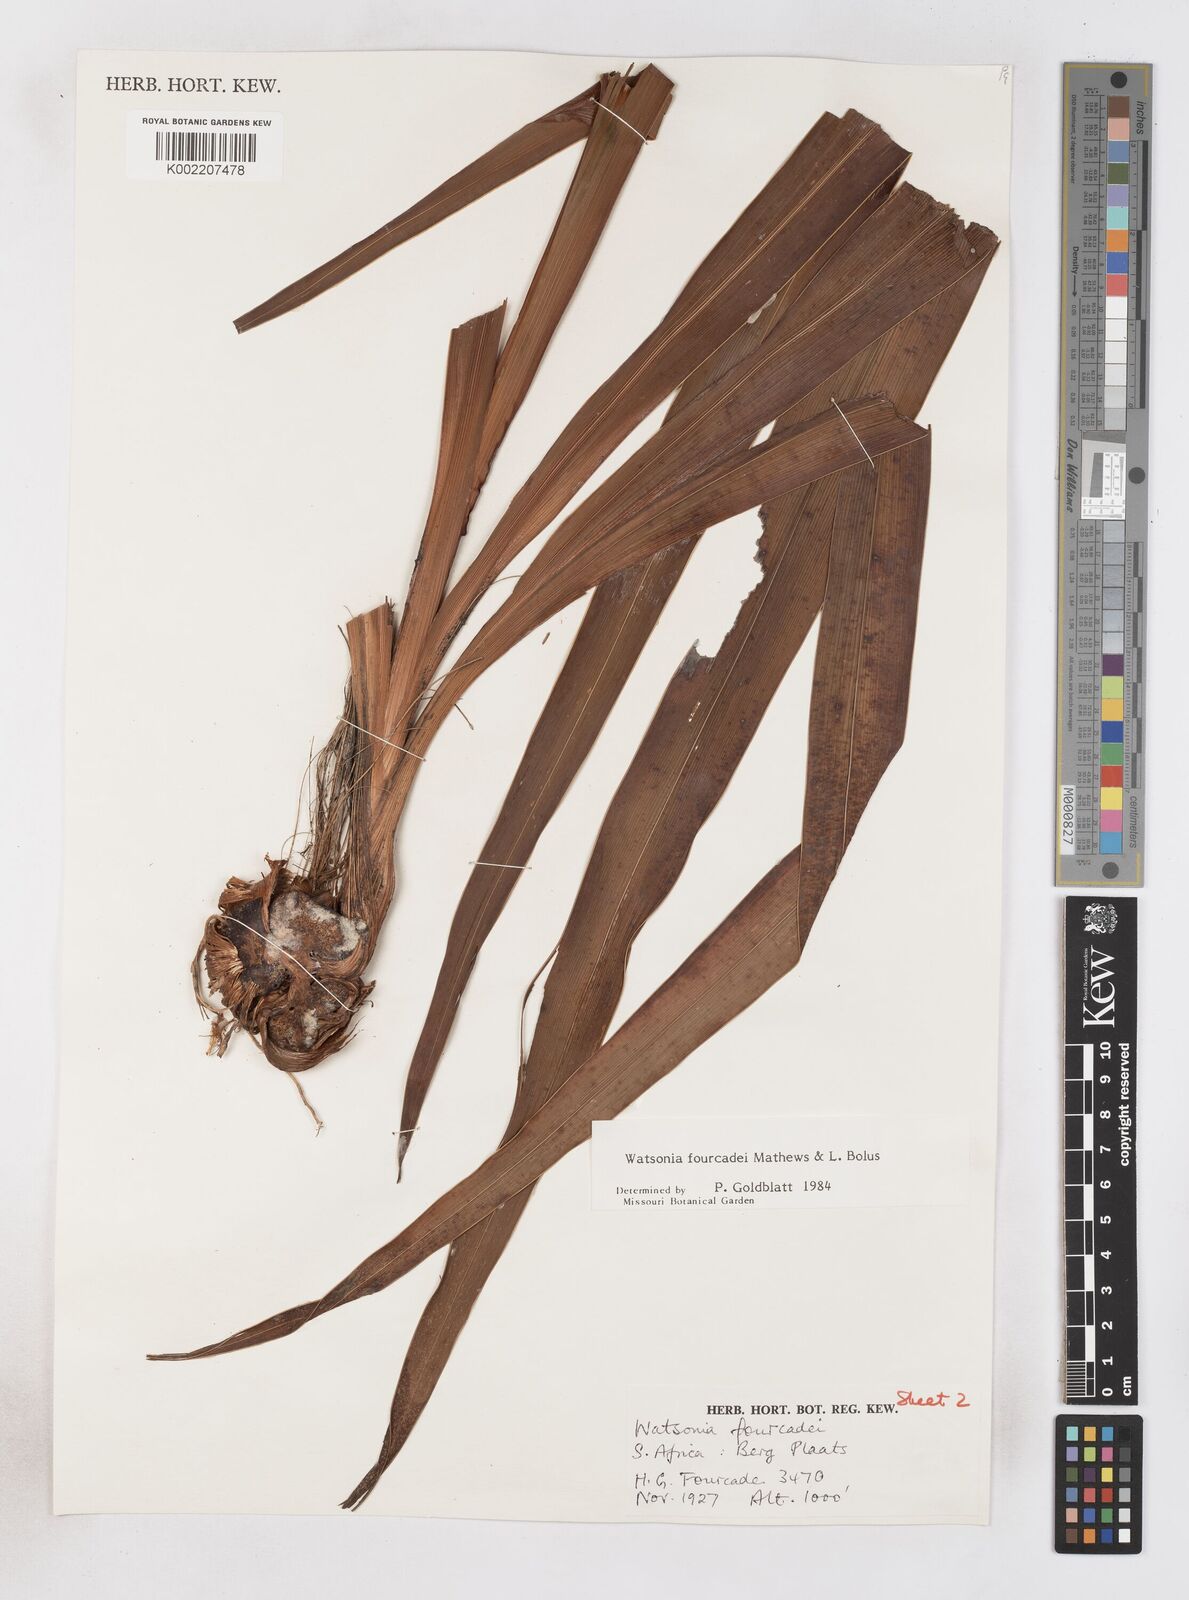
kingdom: Plantae
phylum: Tracheophyta
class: Liliopsida
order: Asparagales
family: Iridaceae
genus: Watsonia
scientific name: Watsonia fourcadei
